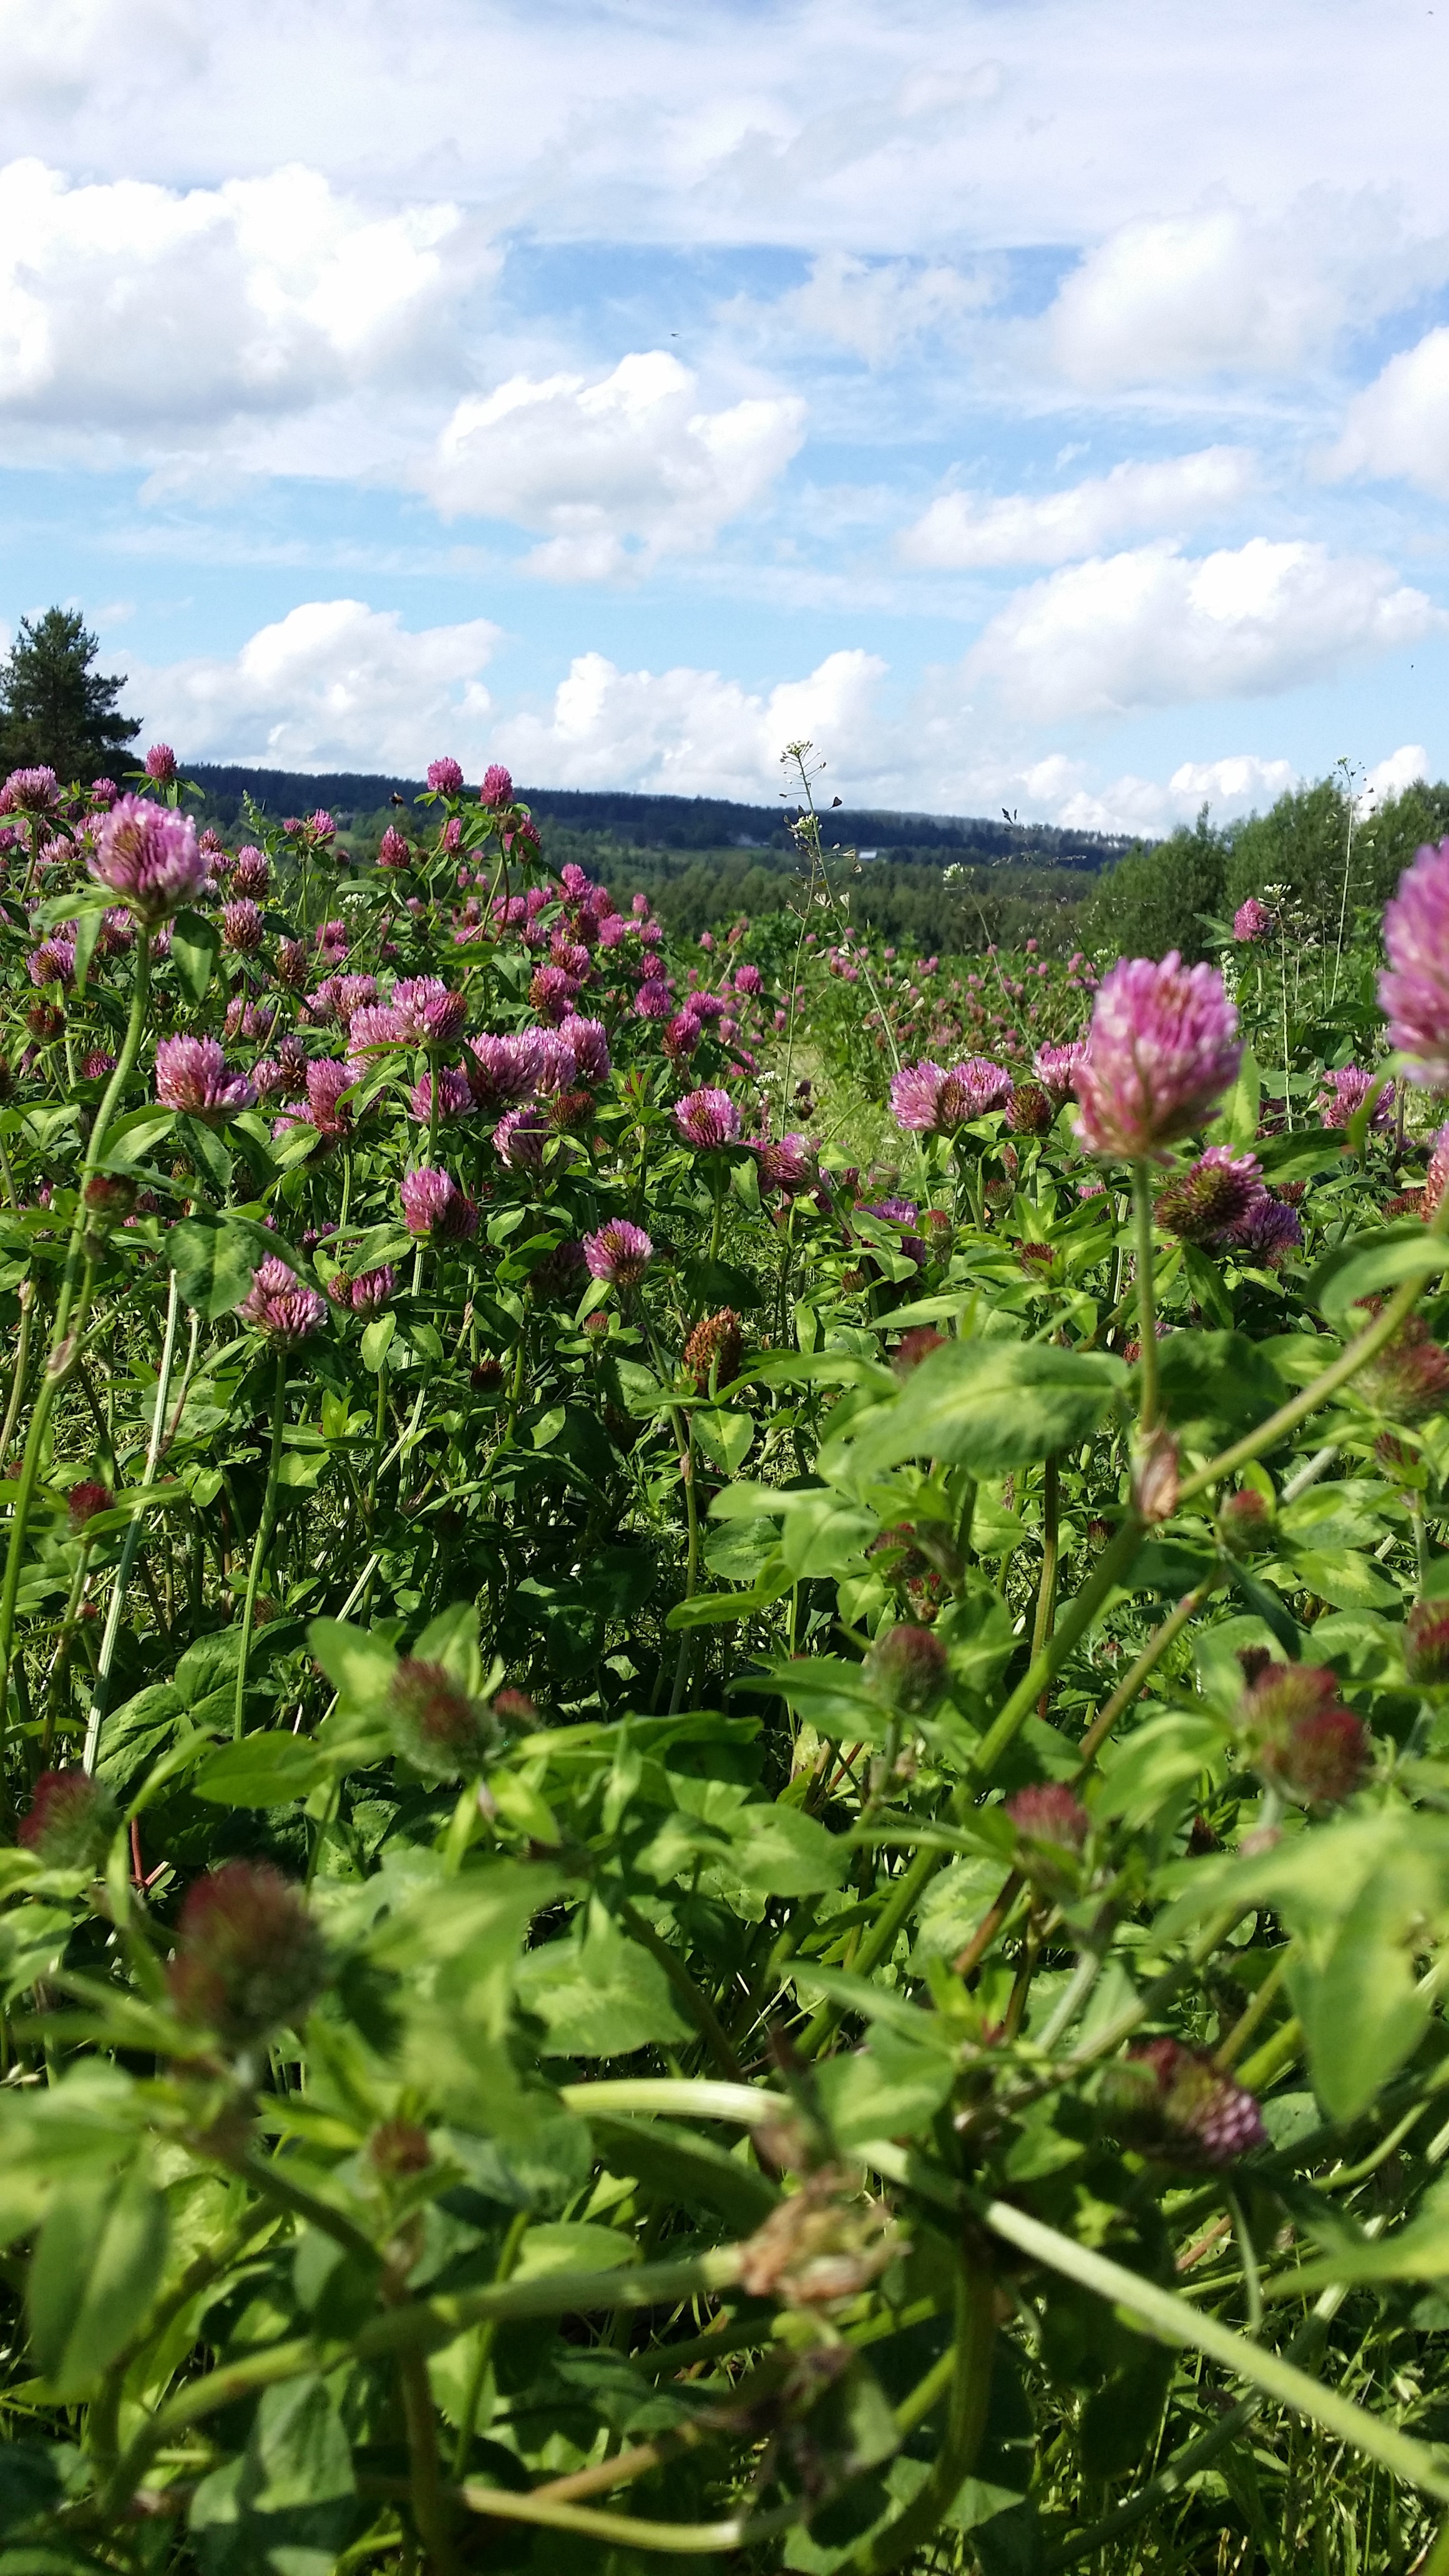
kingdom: Plantae
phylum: Tracheophyta
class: Magnoliopsida
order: Fabales
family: Fabaceae
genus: Trifolium
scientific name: Trifolium pratense
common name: Red clover
